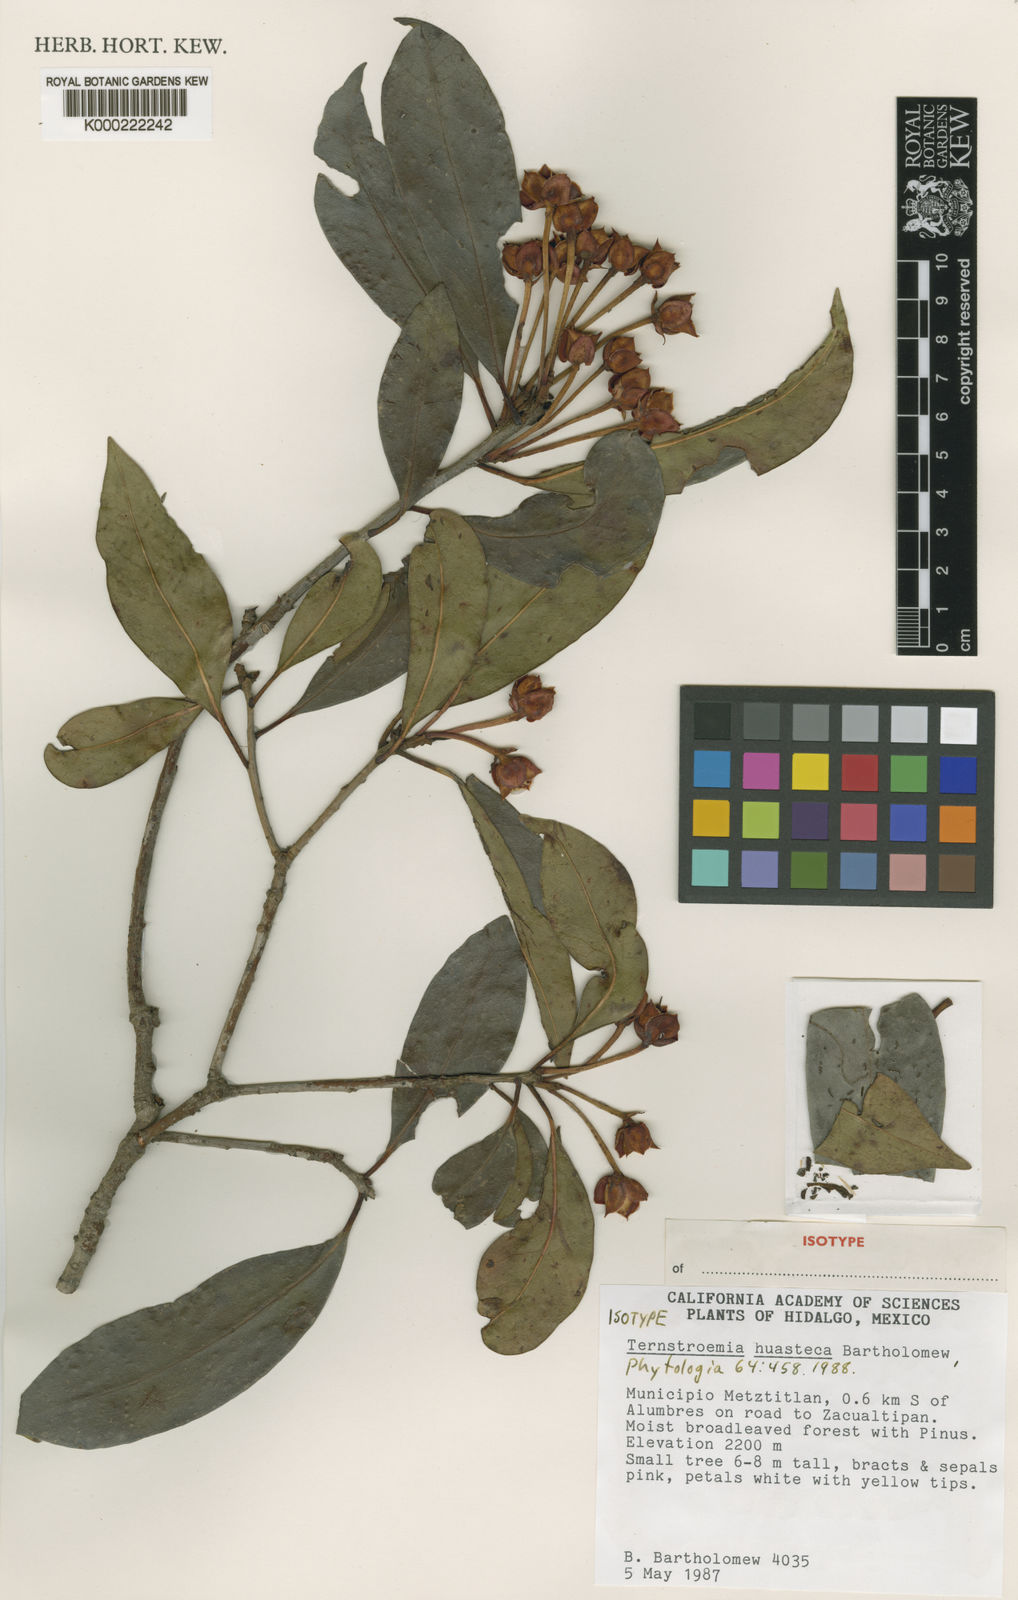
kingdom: Plantae
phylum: Tracheophyta
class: Magnoliopsida
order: Ericales
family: Pentaphylacaceae
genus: Ternstroemia
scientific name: Ternstroemia huasteca
